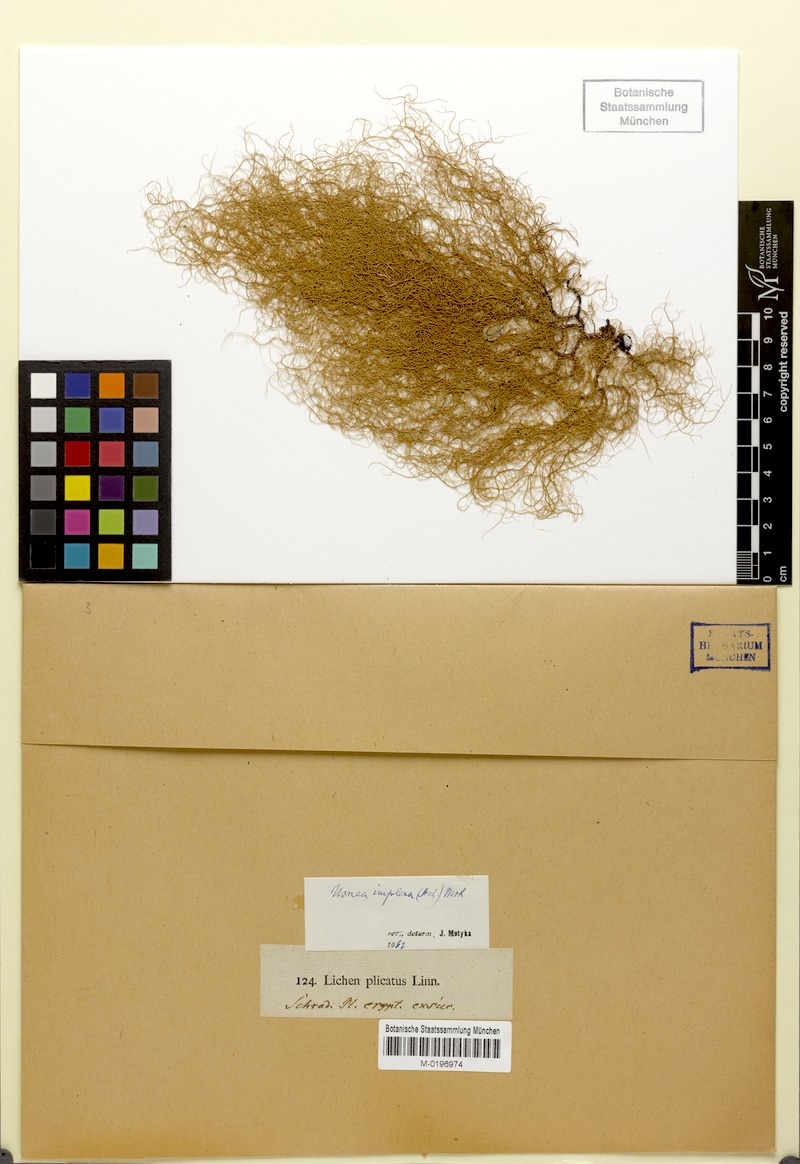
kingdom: Fungi
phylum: Ascomycota
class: Lecanoromycetes
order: Lecanorales
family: Parmeliaceae
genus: Usnea
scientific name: Usnea subimplexa
